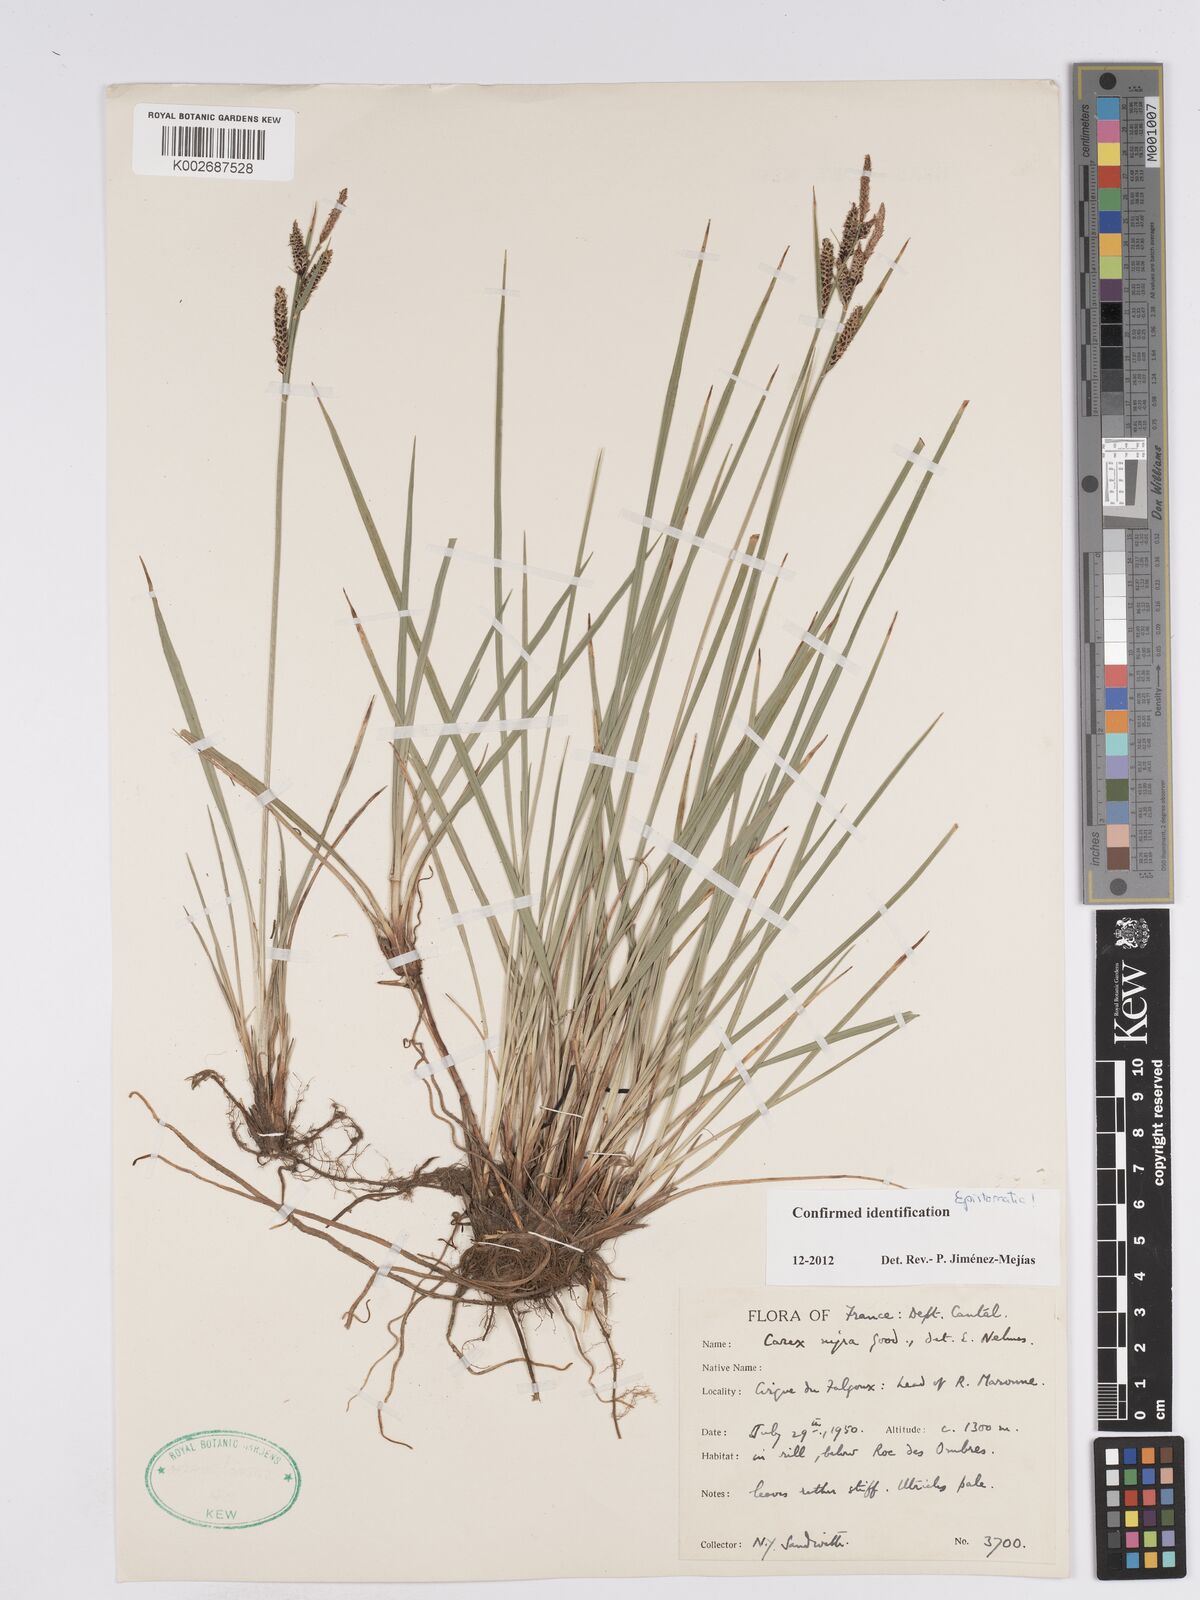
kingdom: Plantae
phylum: Tracheophyta
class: Liliopsida
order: Poales
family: Cyperaceae
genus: Carex
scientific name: Carex nigra
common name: Common sedge
